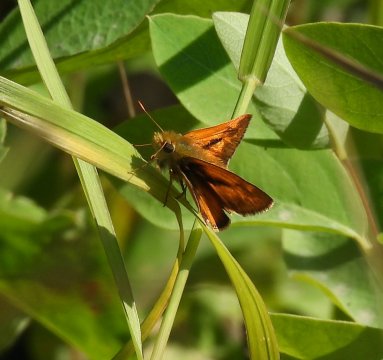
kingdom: Animalia
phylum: Arthropoda
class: Insecta
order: Lepidoptera
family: Hesperiidae
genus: Ochlodes
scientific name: Ochlodes sylvanoides
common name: Woodland Skipper
